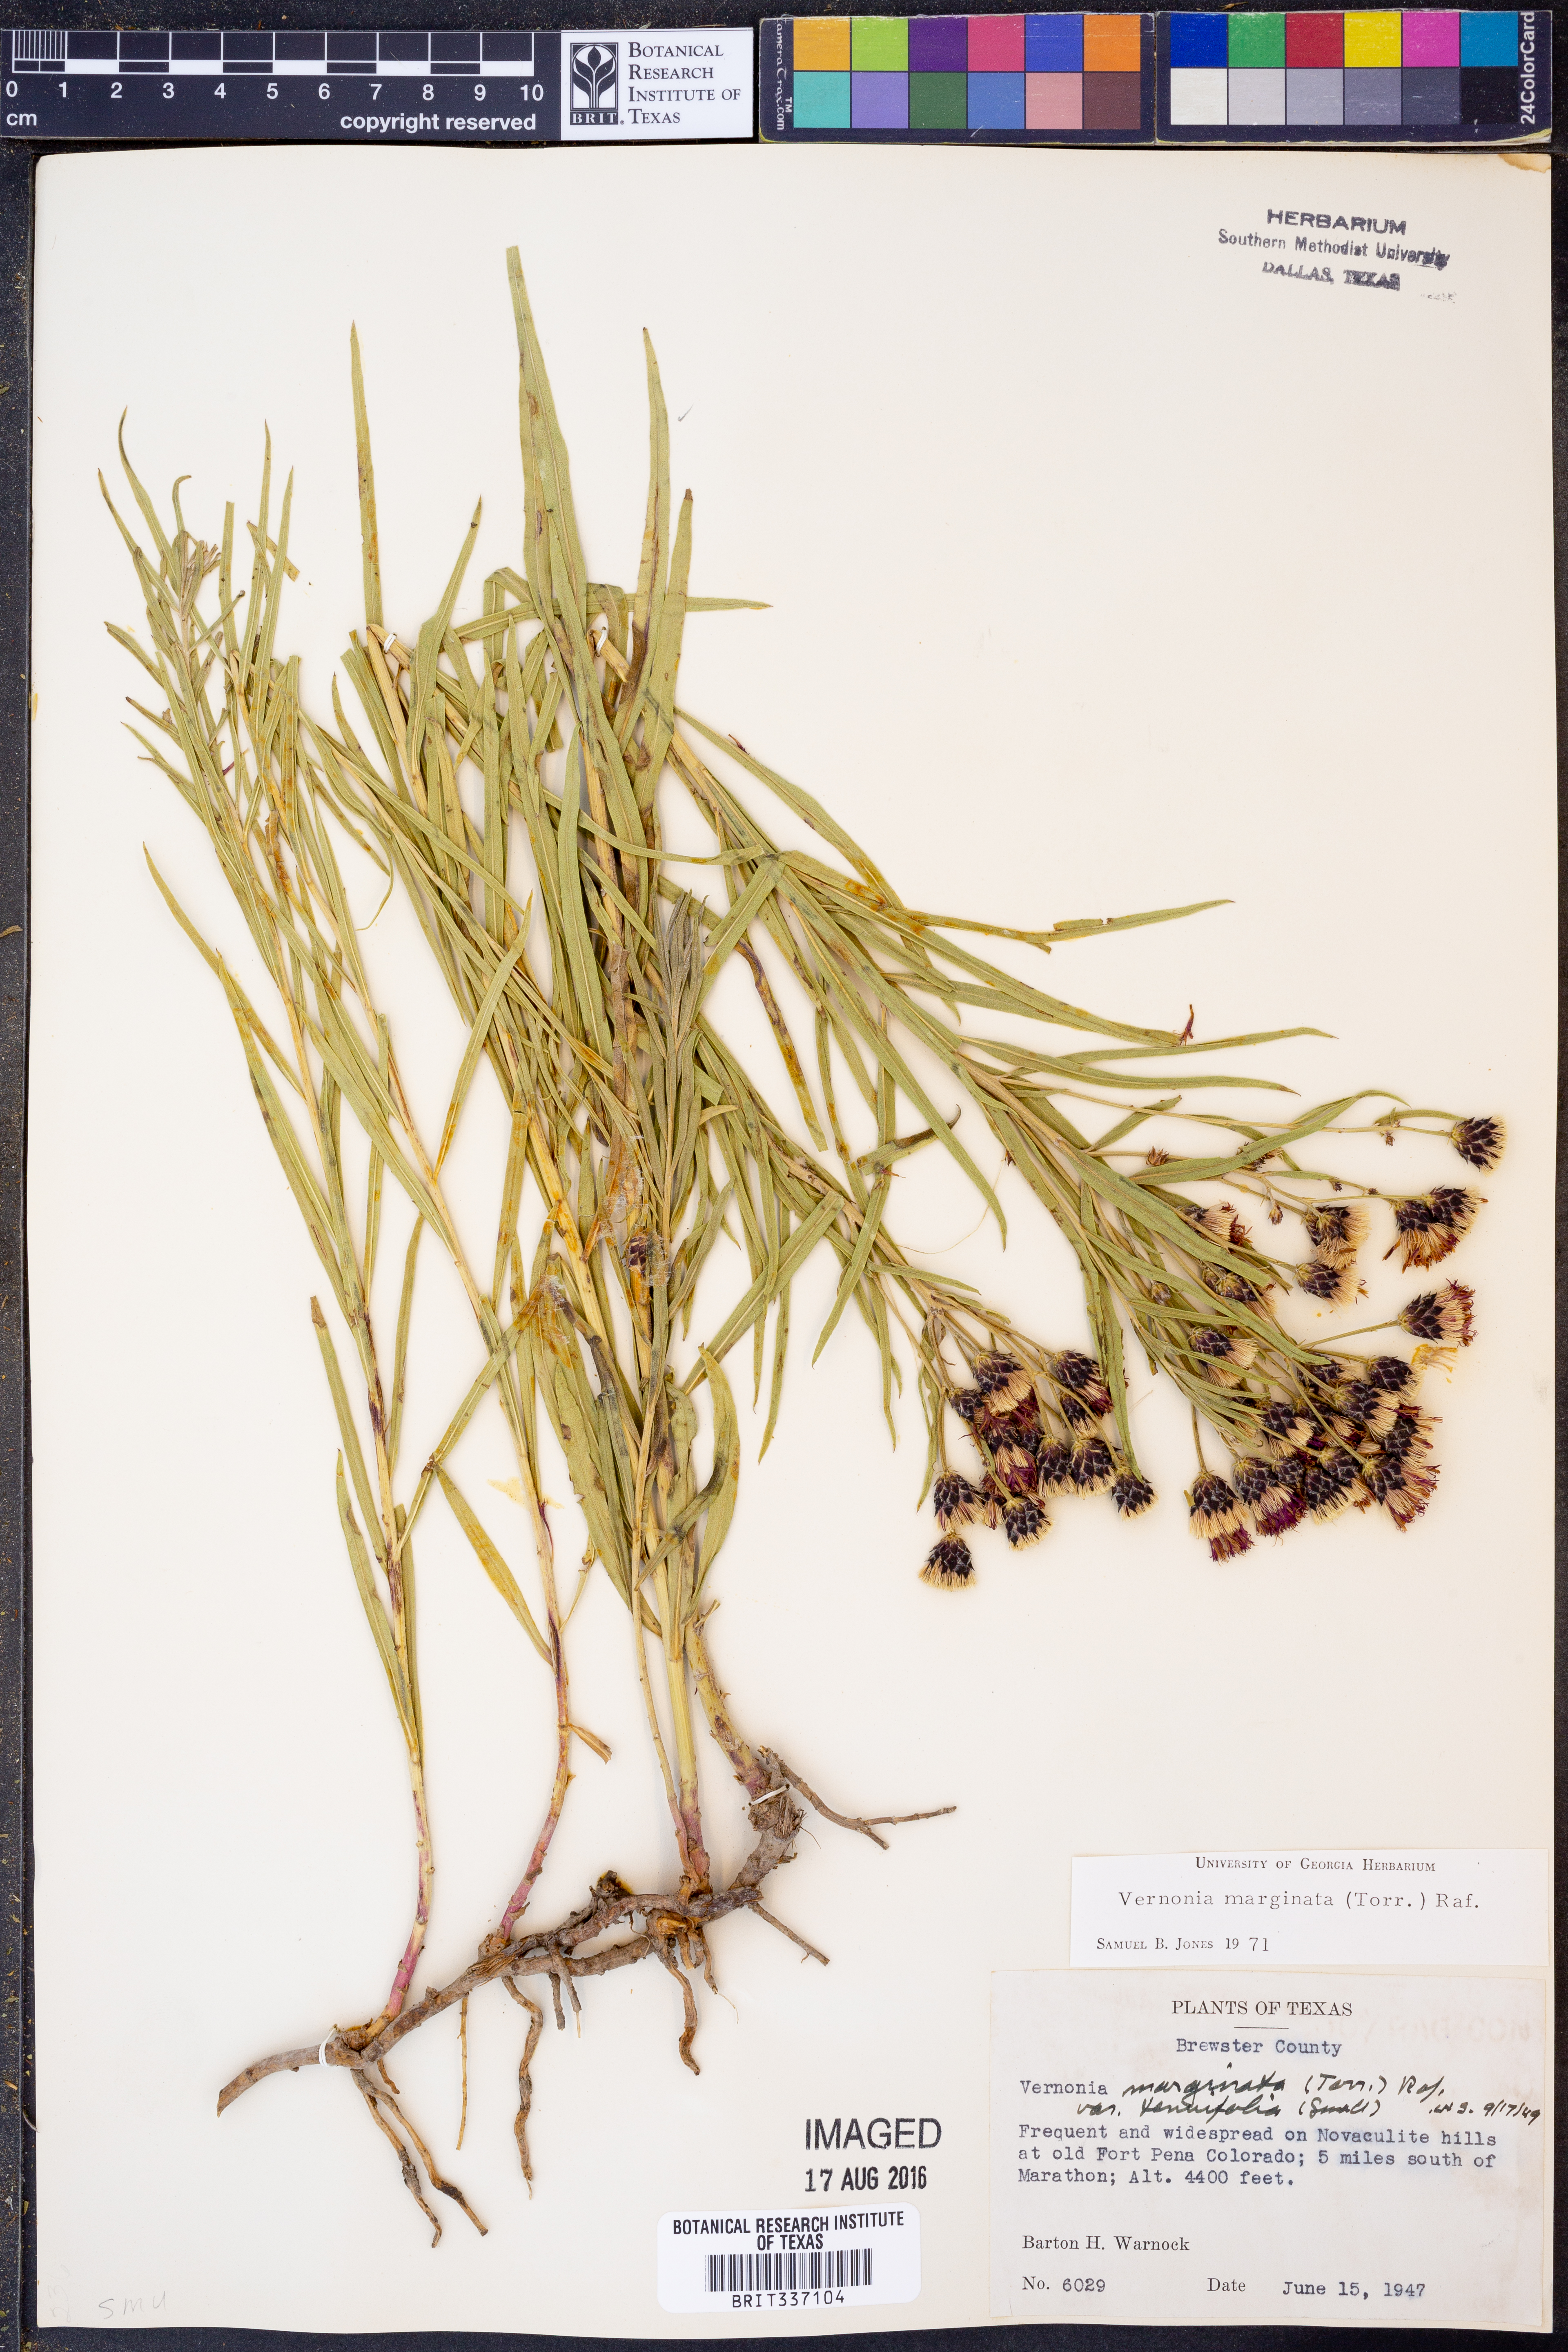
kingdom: Plantae
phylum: Tracheophyta
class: Magnoliopsida
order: Asterales
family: Asteraceae
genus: Vernonia
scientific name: Vernonia marginata
